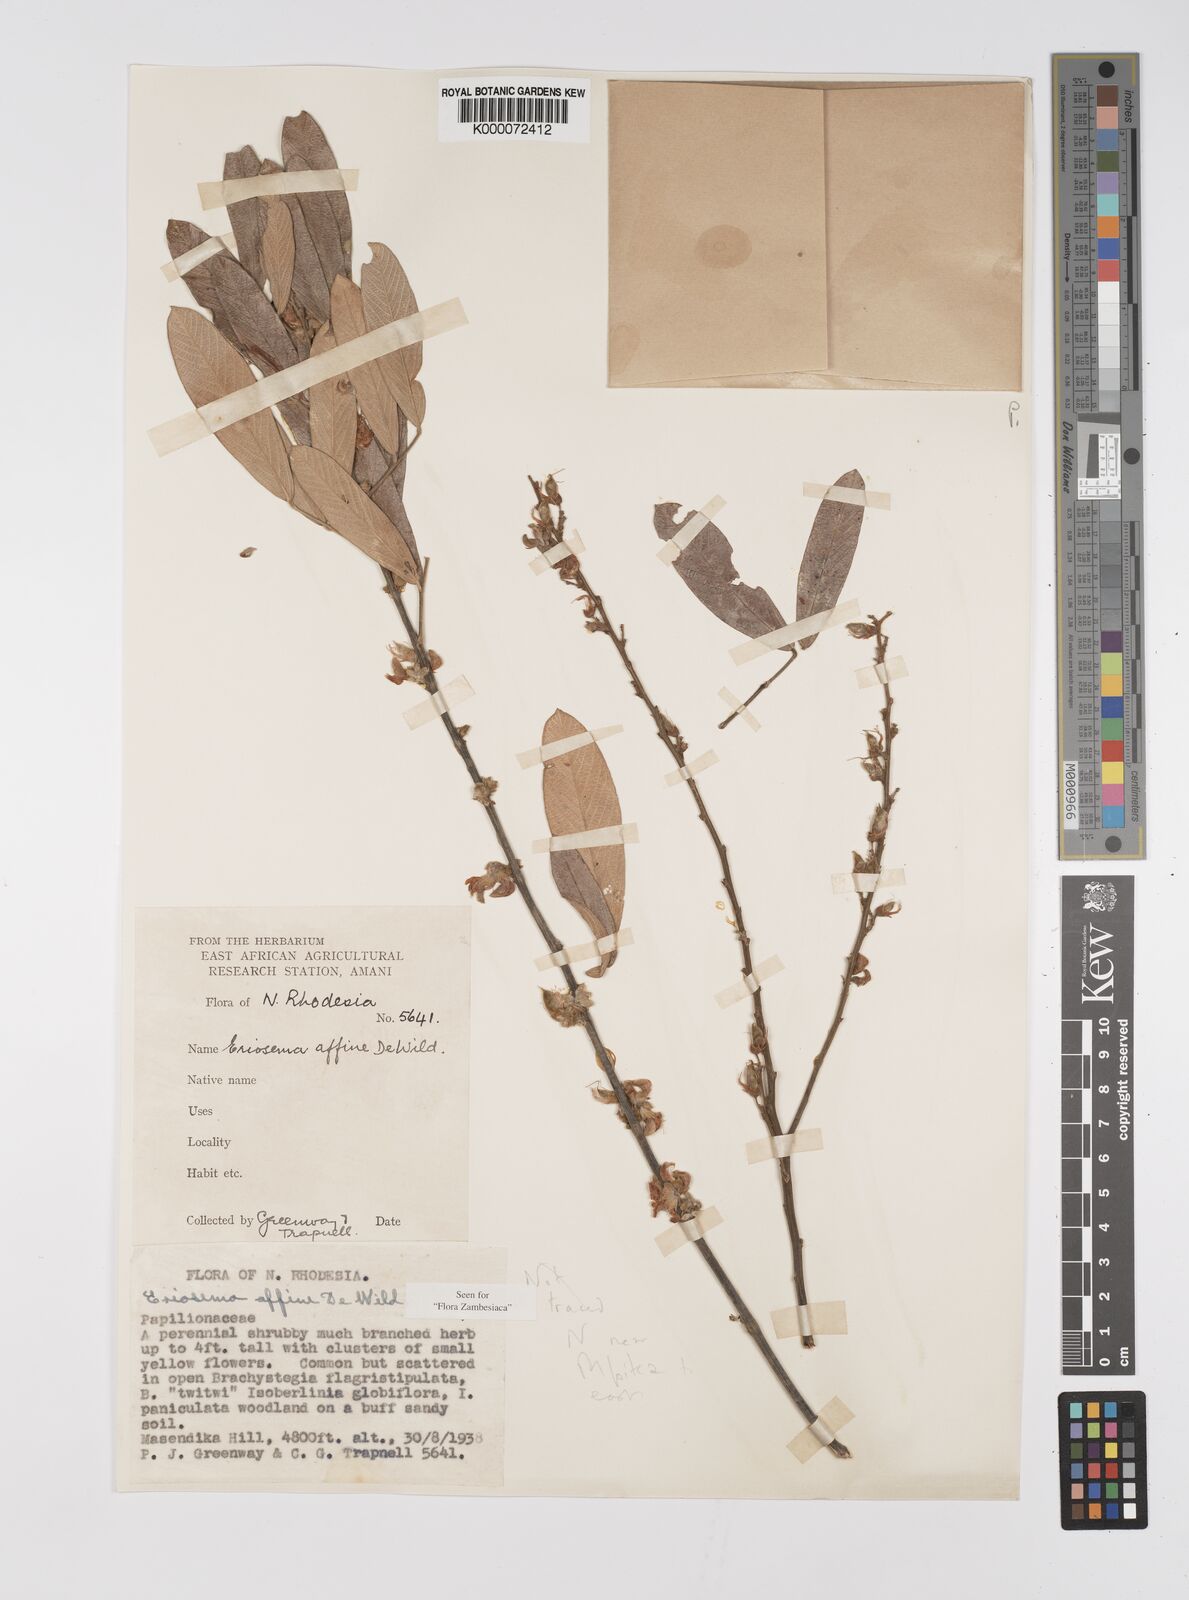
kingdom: Plantae
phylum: Tracheophyta
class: Magnoliopsida
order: Fabales
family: Fabaceae
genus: Eriosema
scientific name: Eriosema affine
